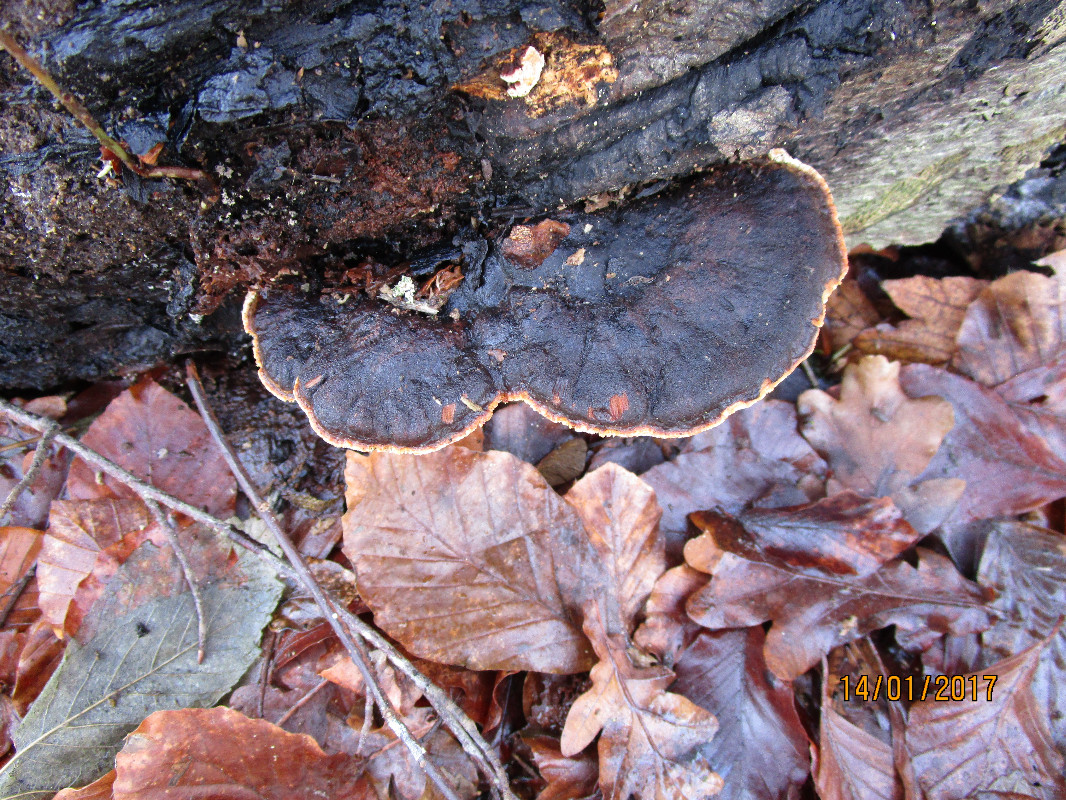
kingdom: Fungi
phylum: Basidiomycota
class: Agaricomycetes
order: Polyporales
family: Ischnodermataceae
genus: Ischnoderma
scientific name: Ischnoderma resinosum
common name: løv-tjæreporesvamp
